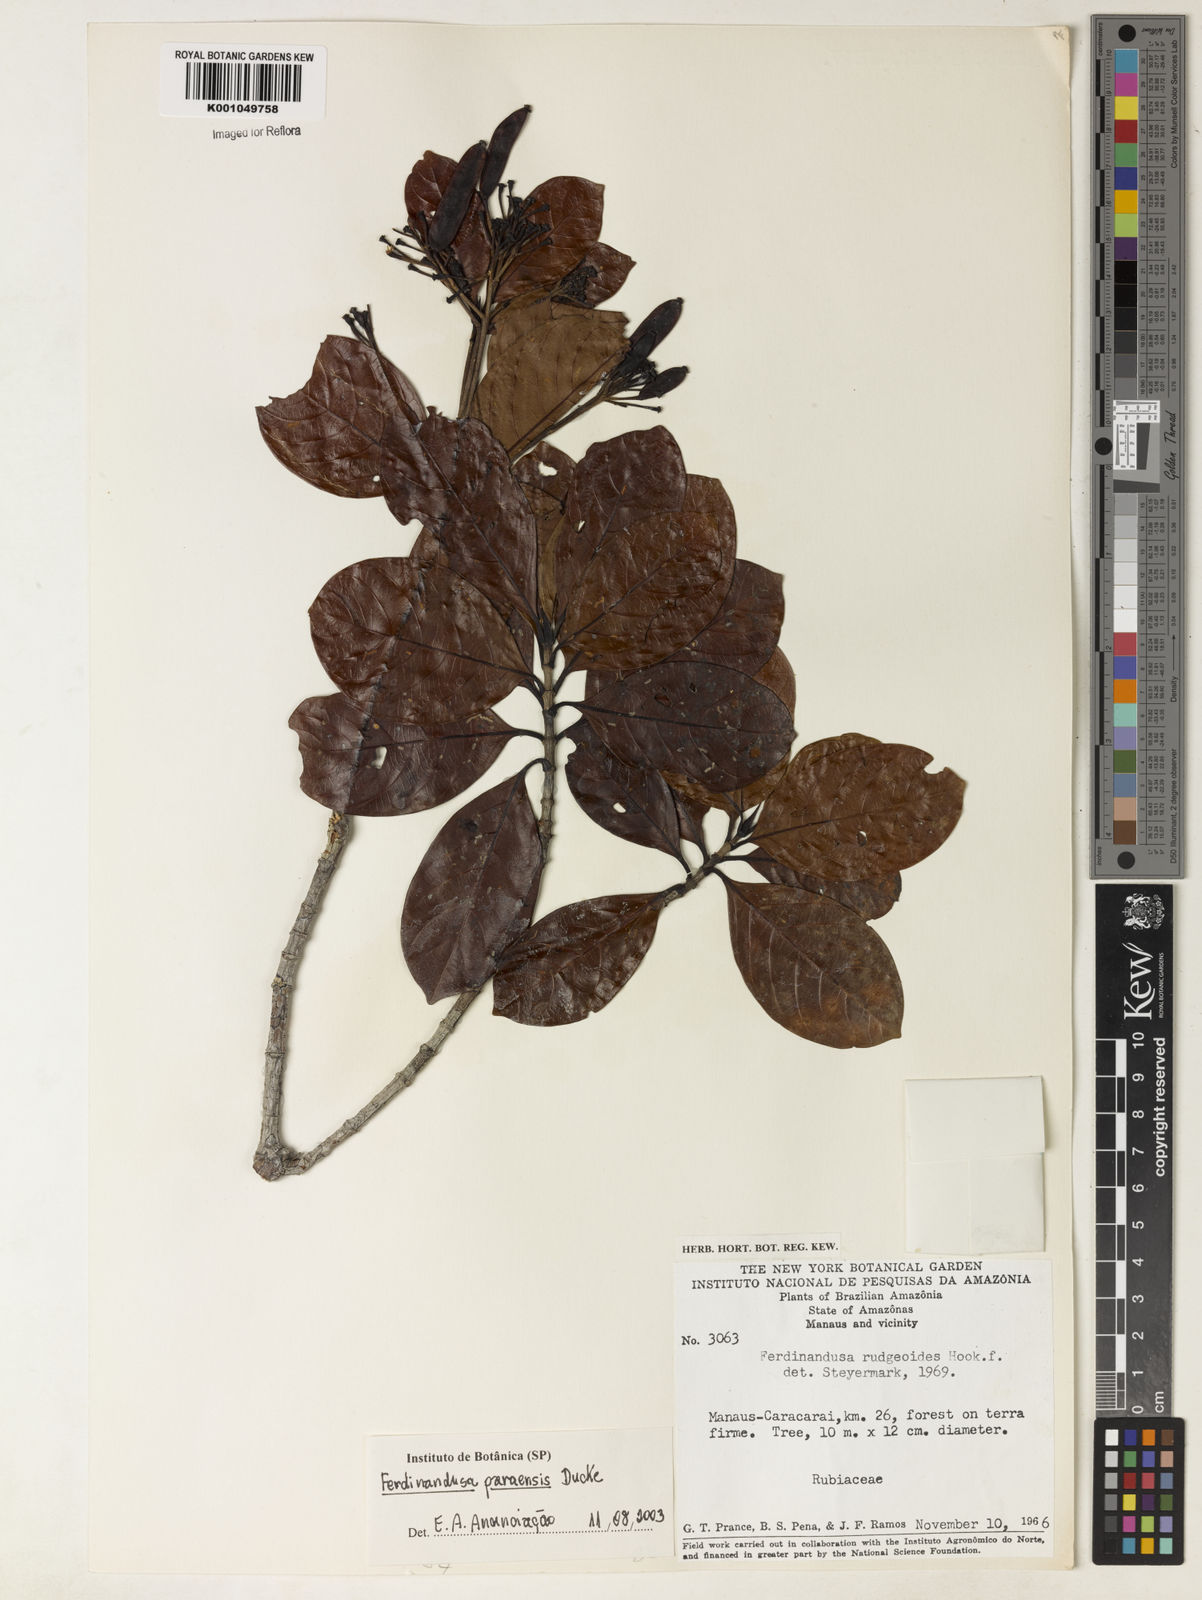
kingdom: Plantae
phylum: Tracheophyta
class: Magnoliopsida
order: Gentianales
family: Rubiaceae
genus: Ferdinandusa
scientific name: Ferdinandusa paraensis
